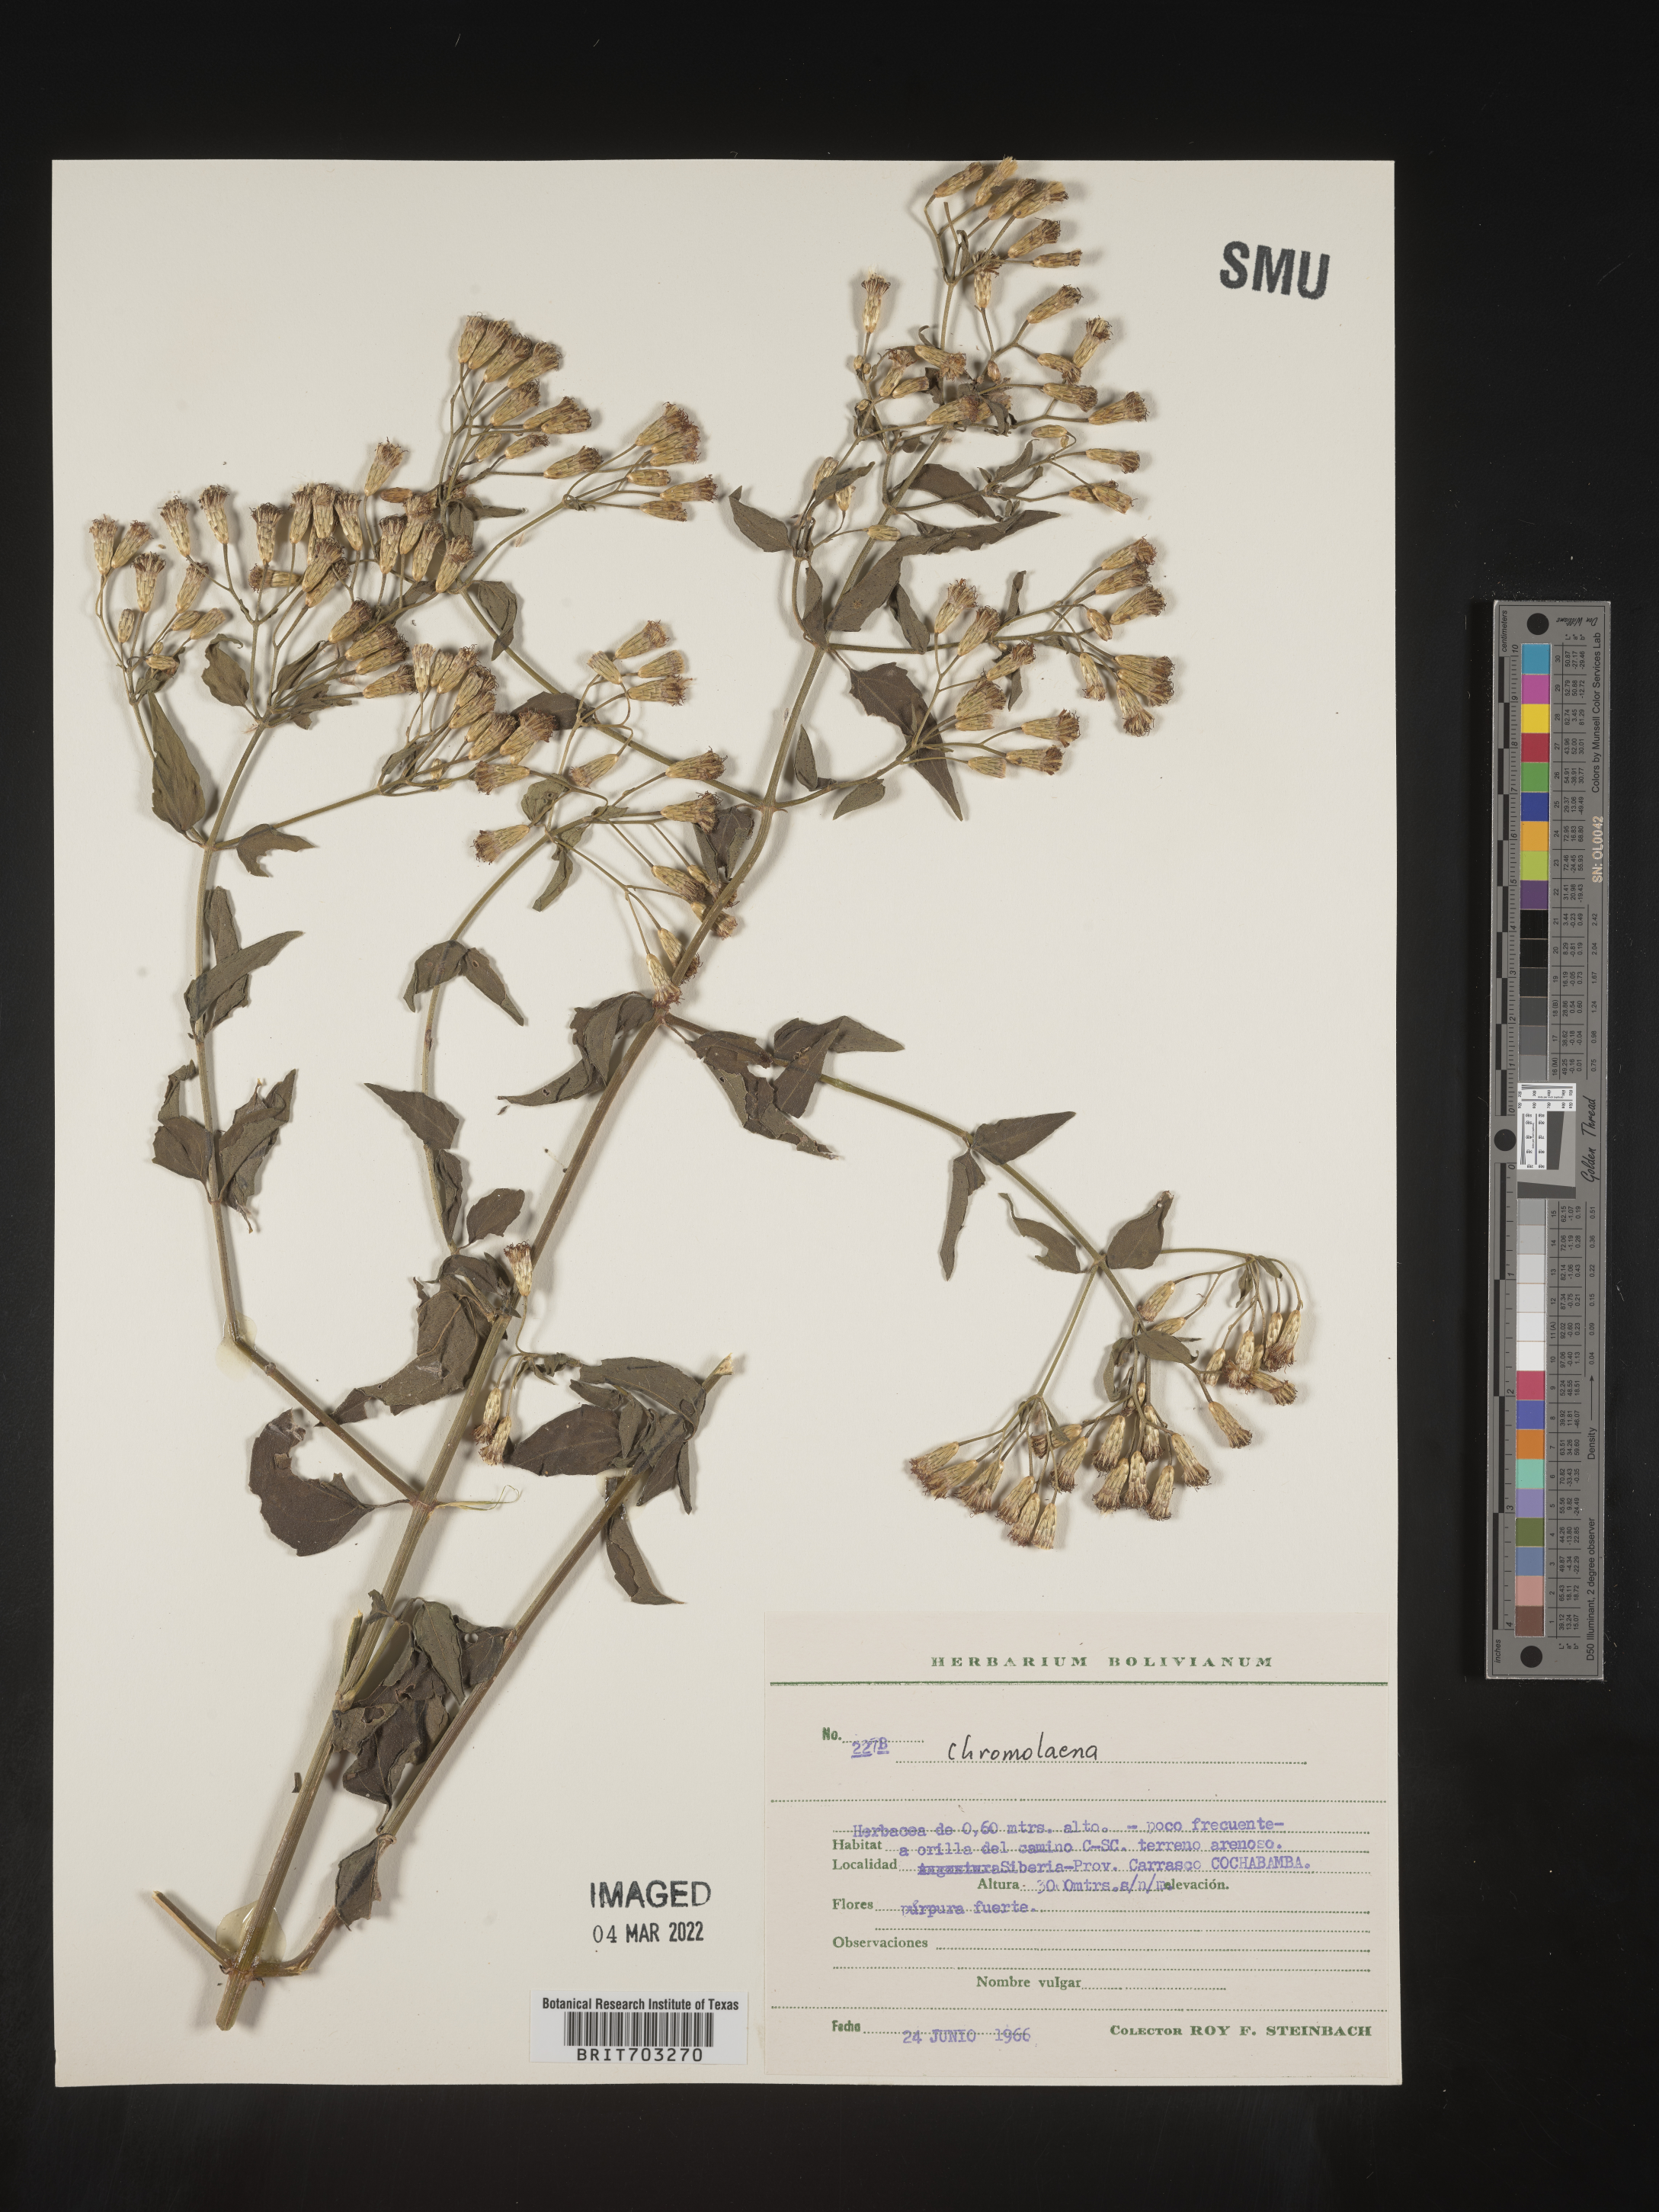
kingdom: Plantae
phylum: Tracheophyta
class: Magnoliopsida
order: Asterales
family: Asteraceae
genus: Eupatorium
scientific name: Eupatorium
